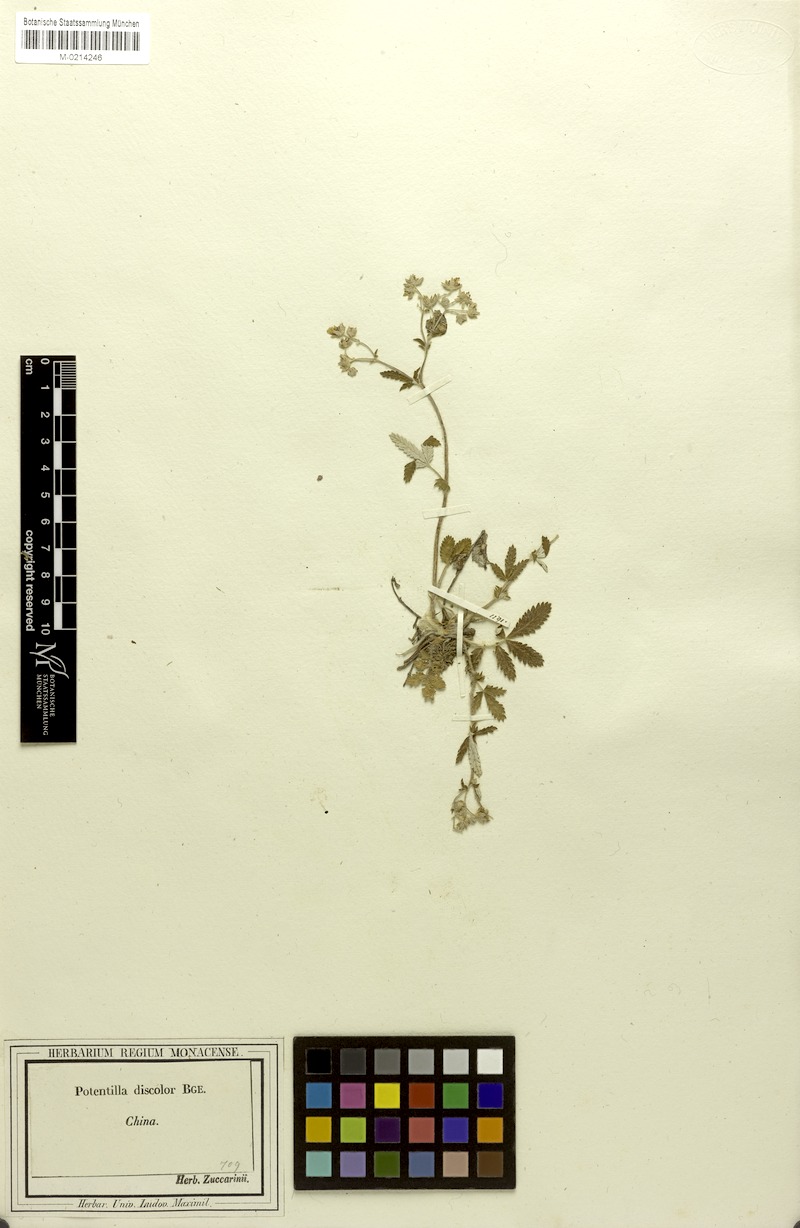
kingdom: Plantae
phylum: Tracheophyta
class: Magnoliopsida
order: Rosales
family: Rosaceae
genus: Potentilla
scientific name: Potentilla discolor
